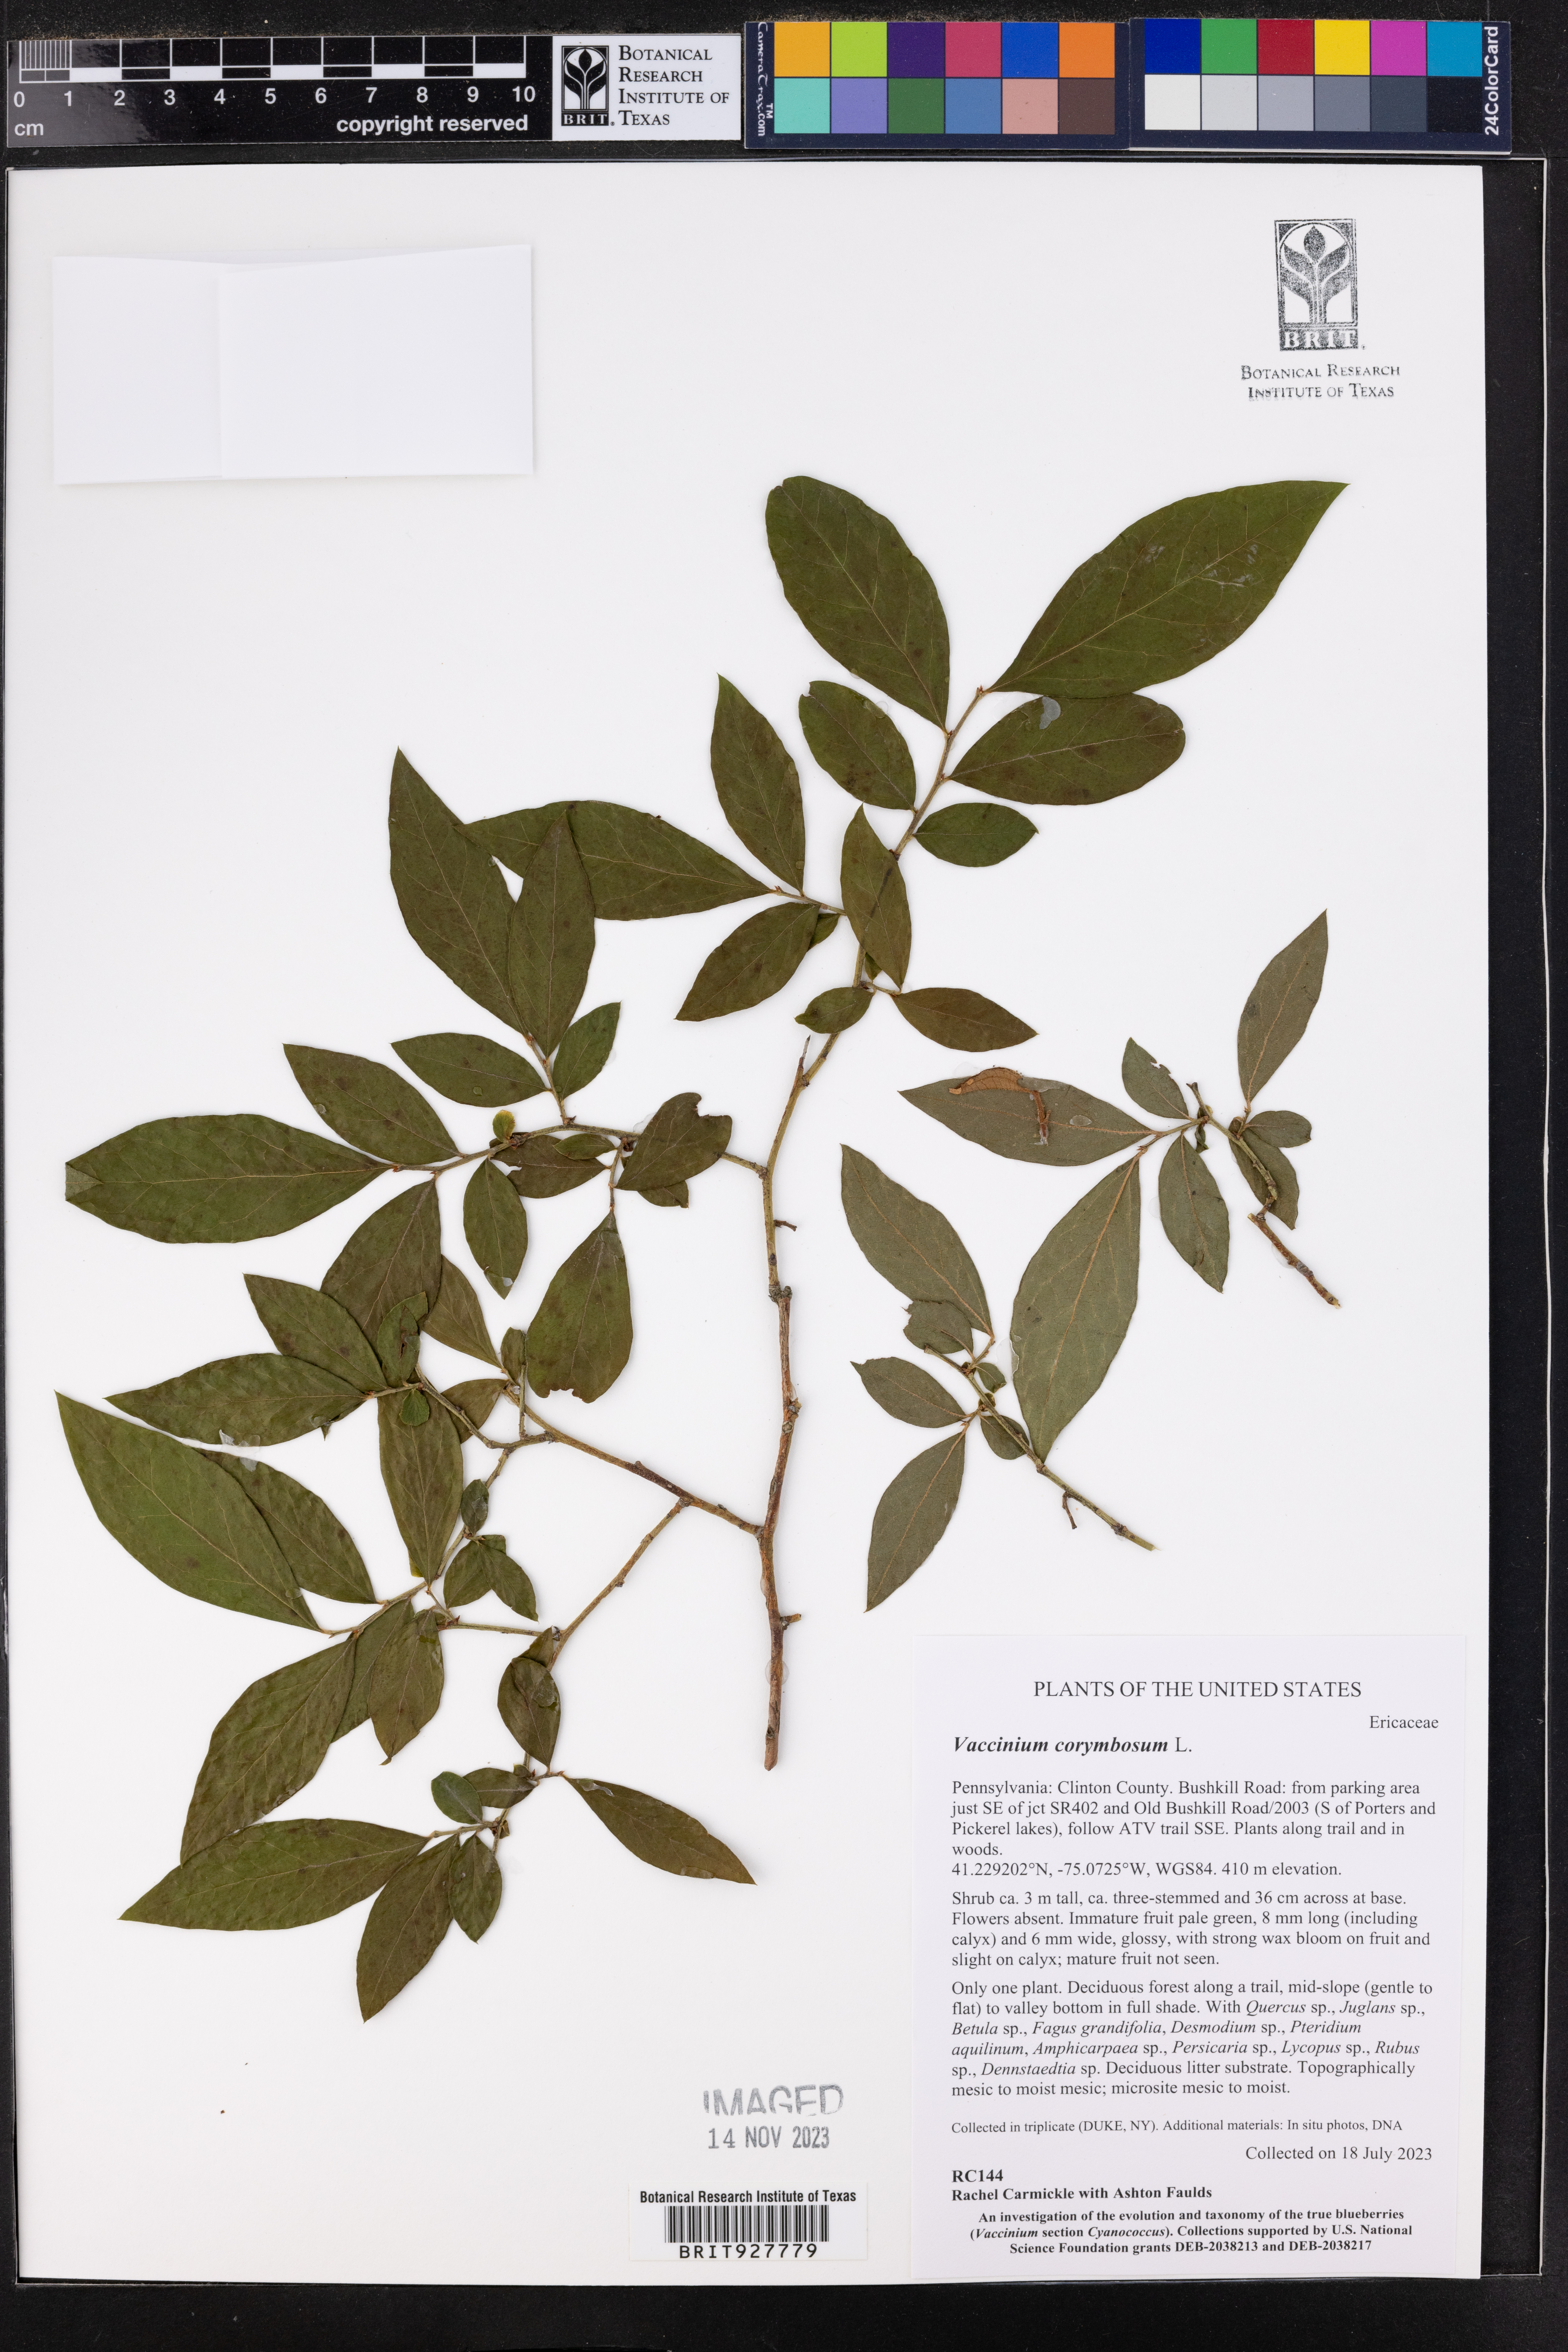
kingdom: Plantae
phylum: Tracheophyta
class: Magnoliopsida
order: Ericales
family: Ericaceae
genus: Vaccinium
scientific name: Vaccinium corymbosum
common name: Blueberry
